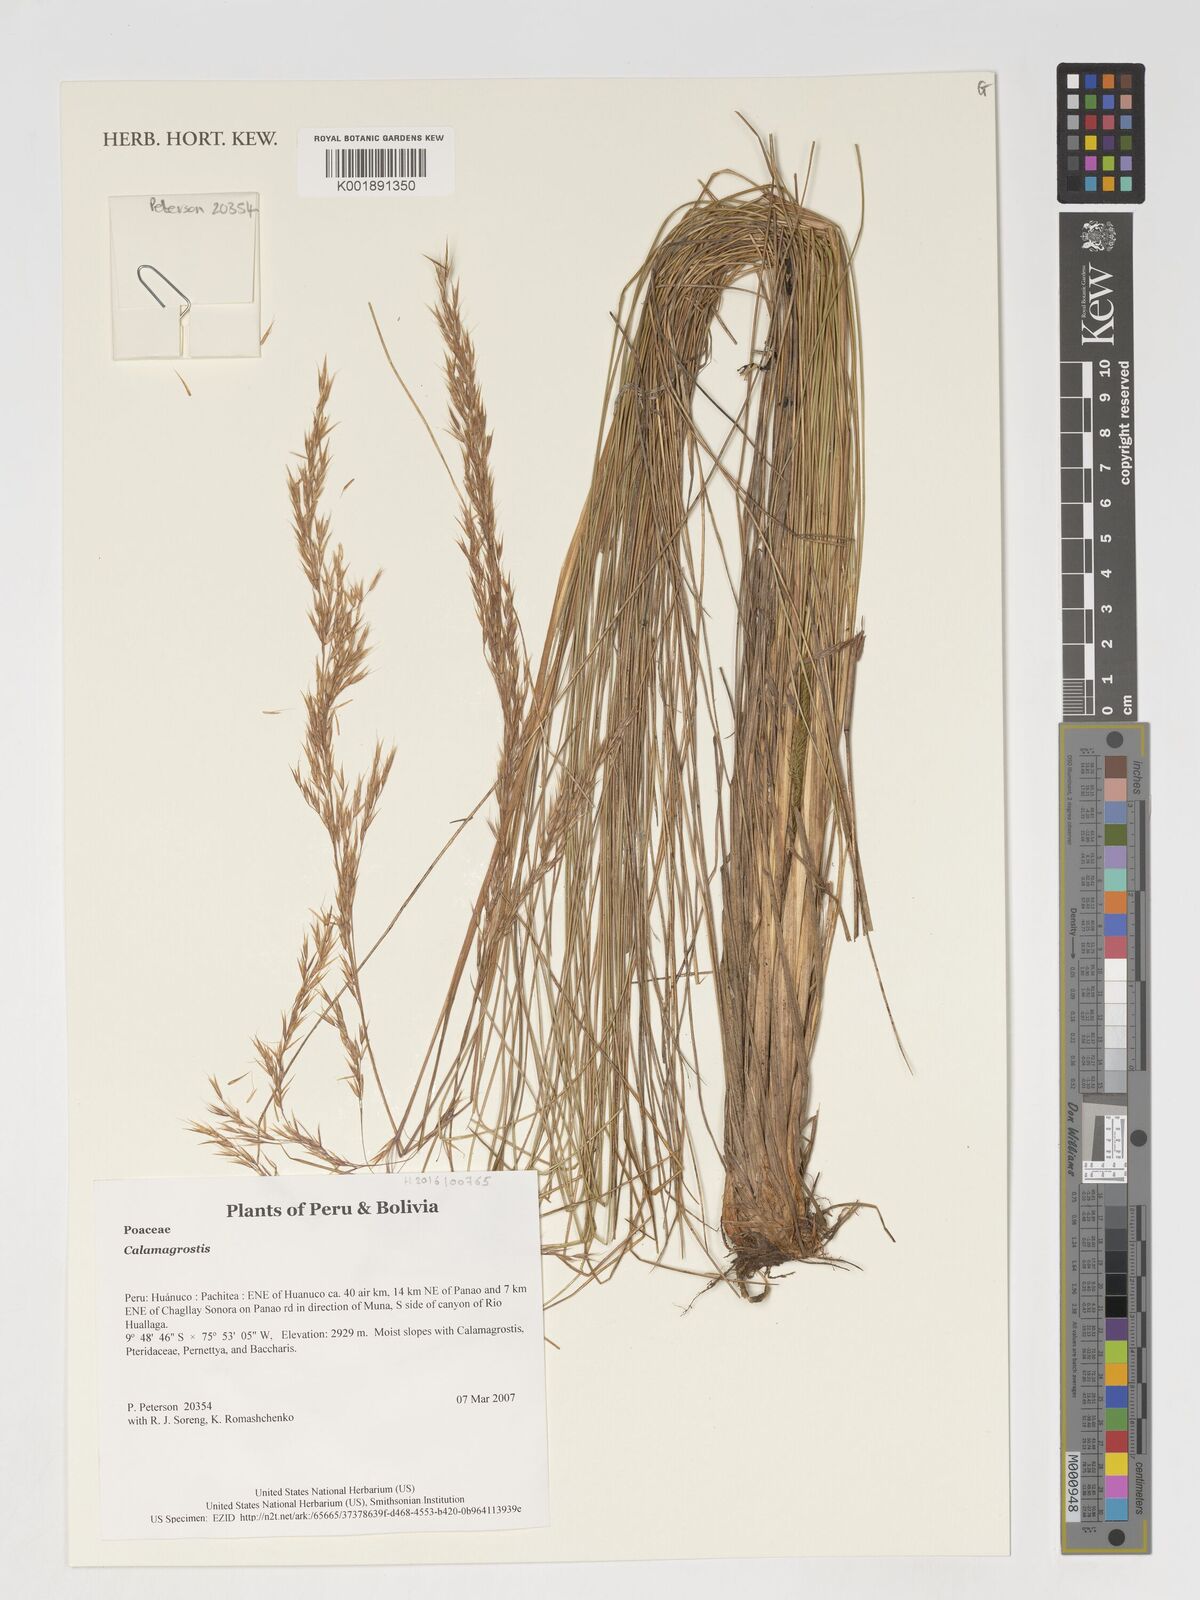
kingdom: Plantae
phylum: Tracheophyta
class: Liliopsida
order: Poales
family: Poaceae
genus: Calamagrostis
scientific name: Calamagrostis
